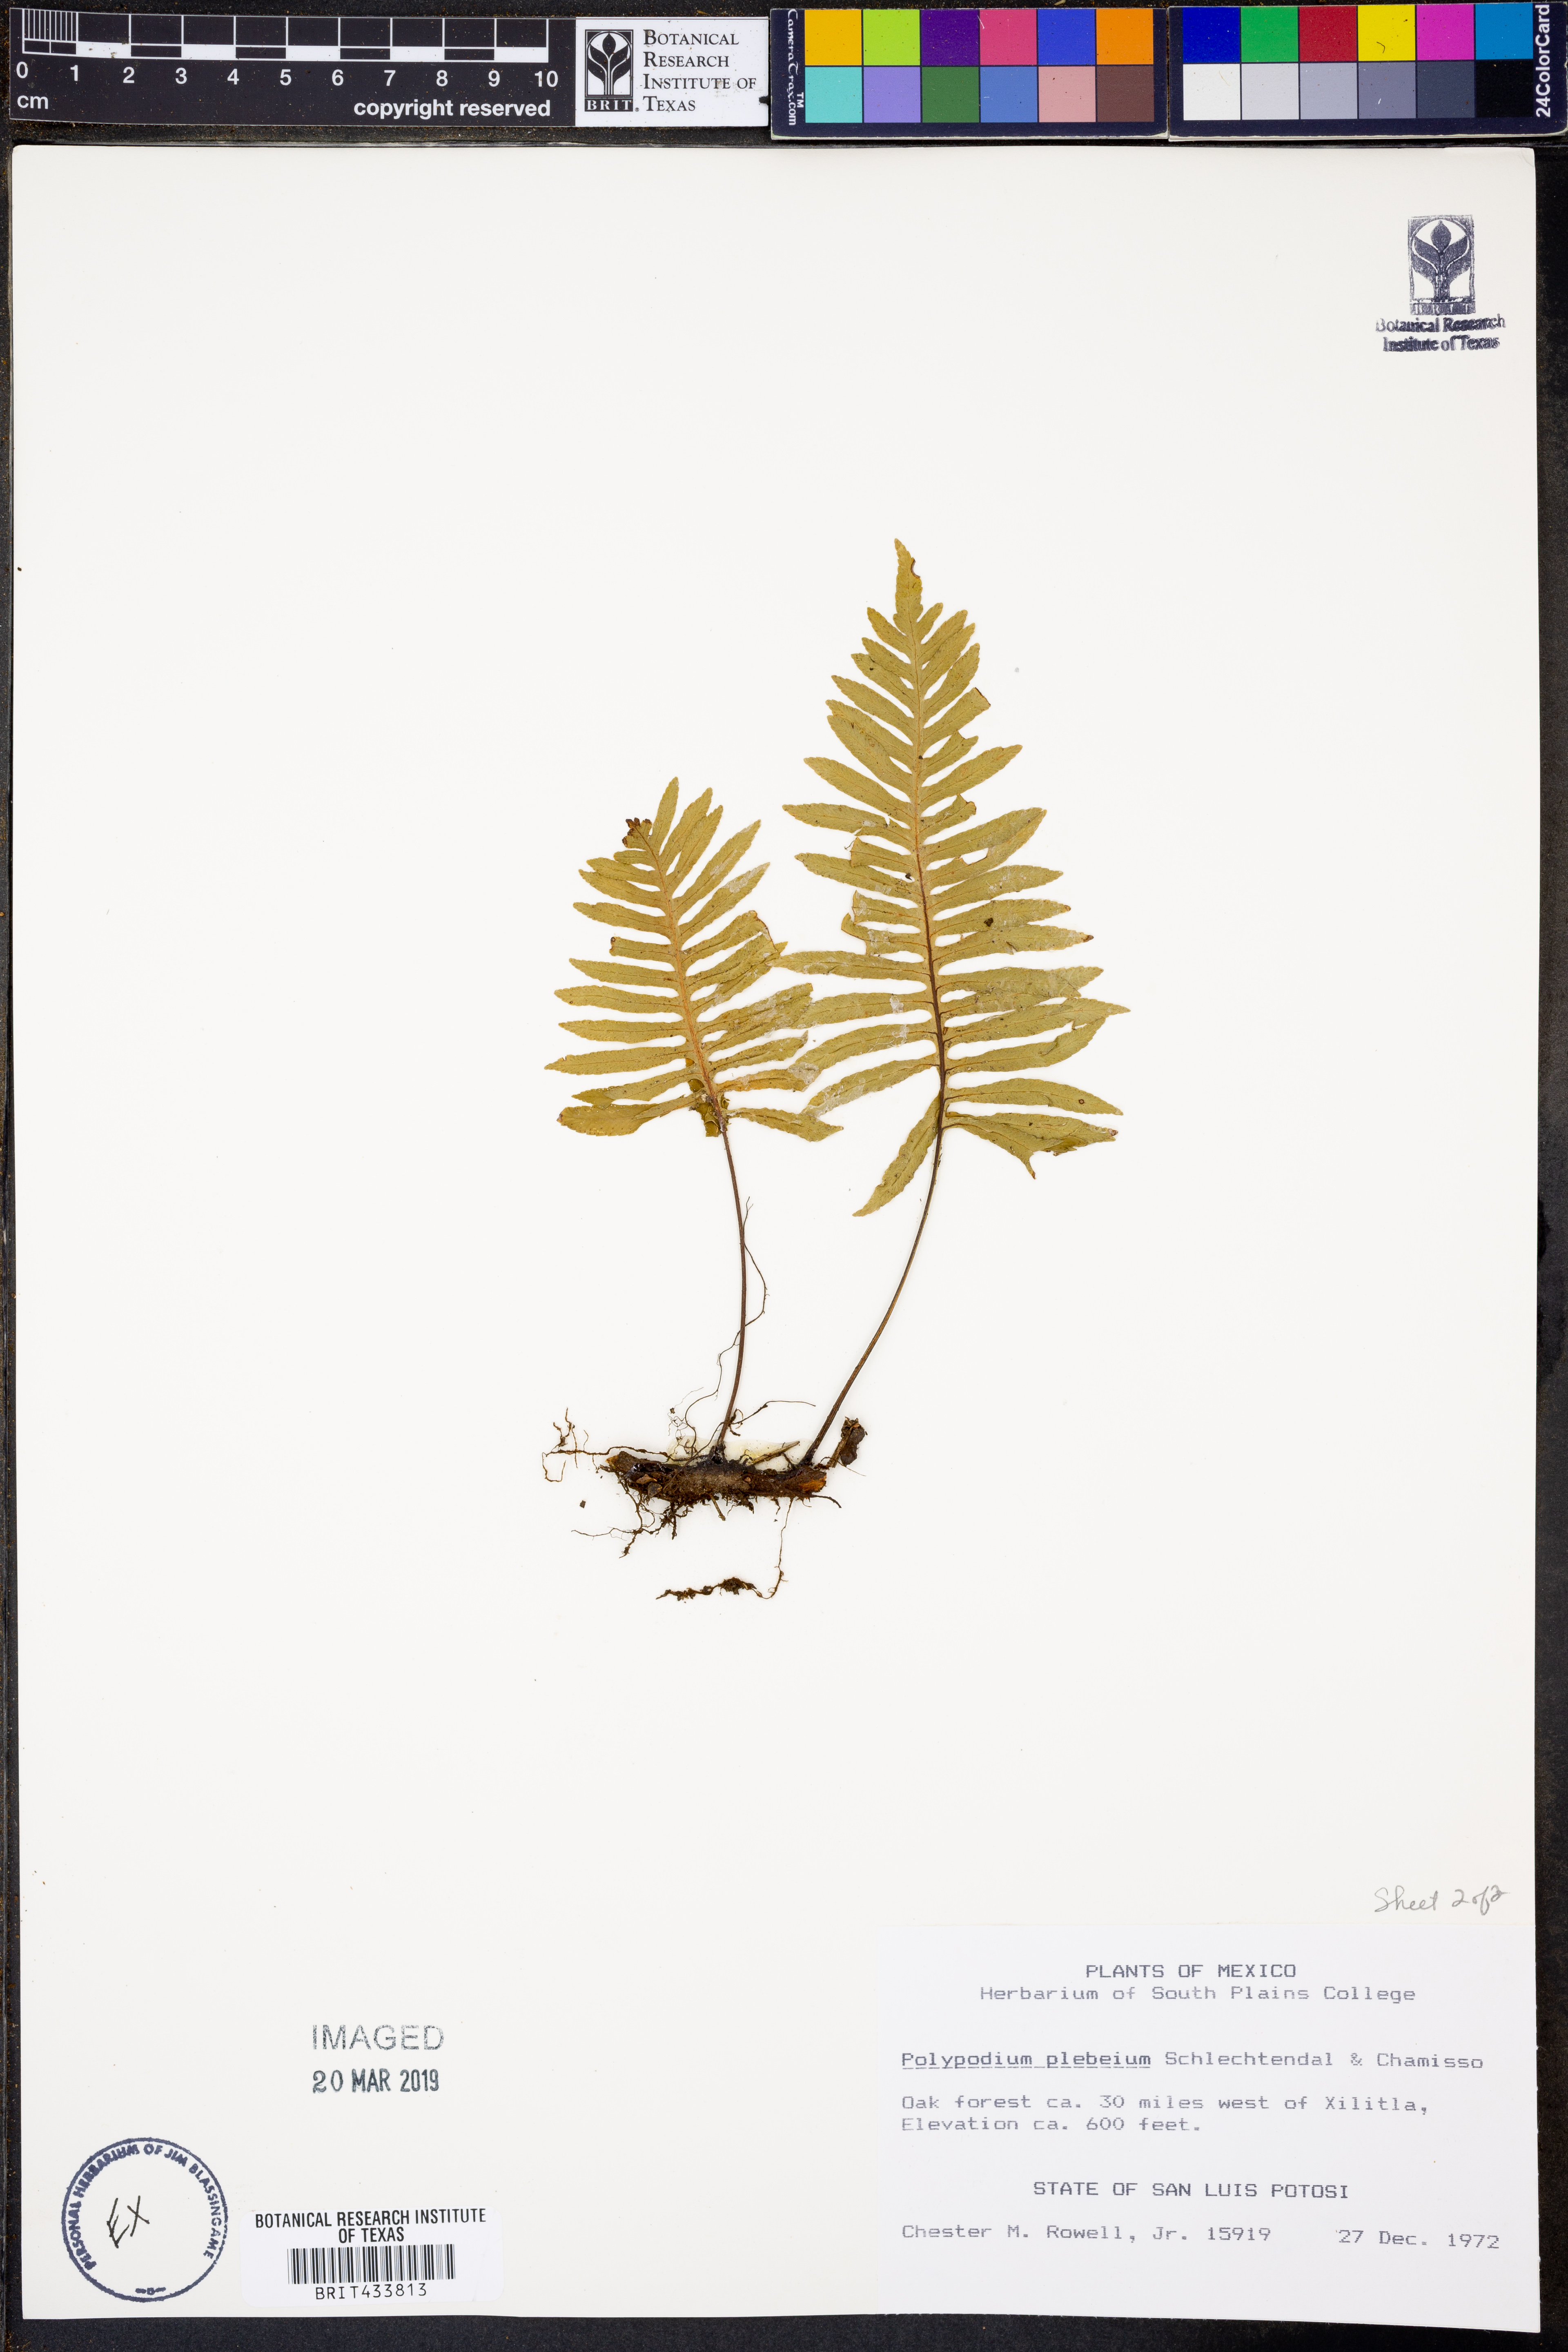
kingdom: Plantae
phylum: Tracheophyta
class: Polypodiopsida
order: Polypodiales
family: Polypodiaceae
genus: Pleopeltis
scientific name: Pleopeltis plebeia
